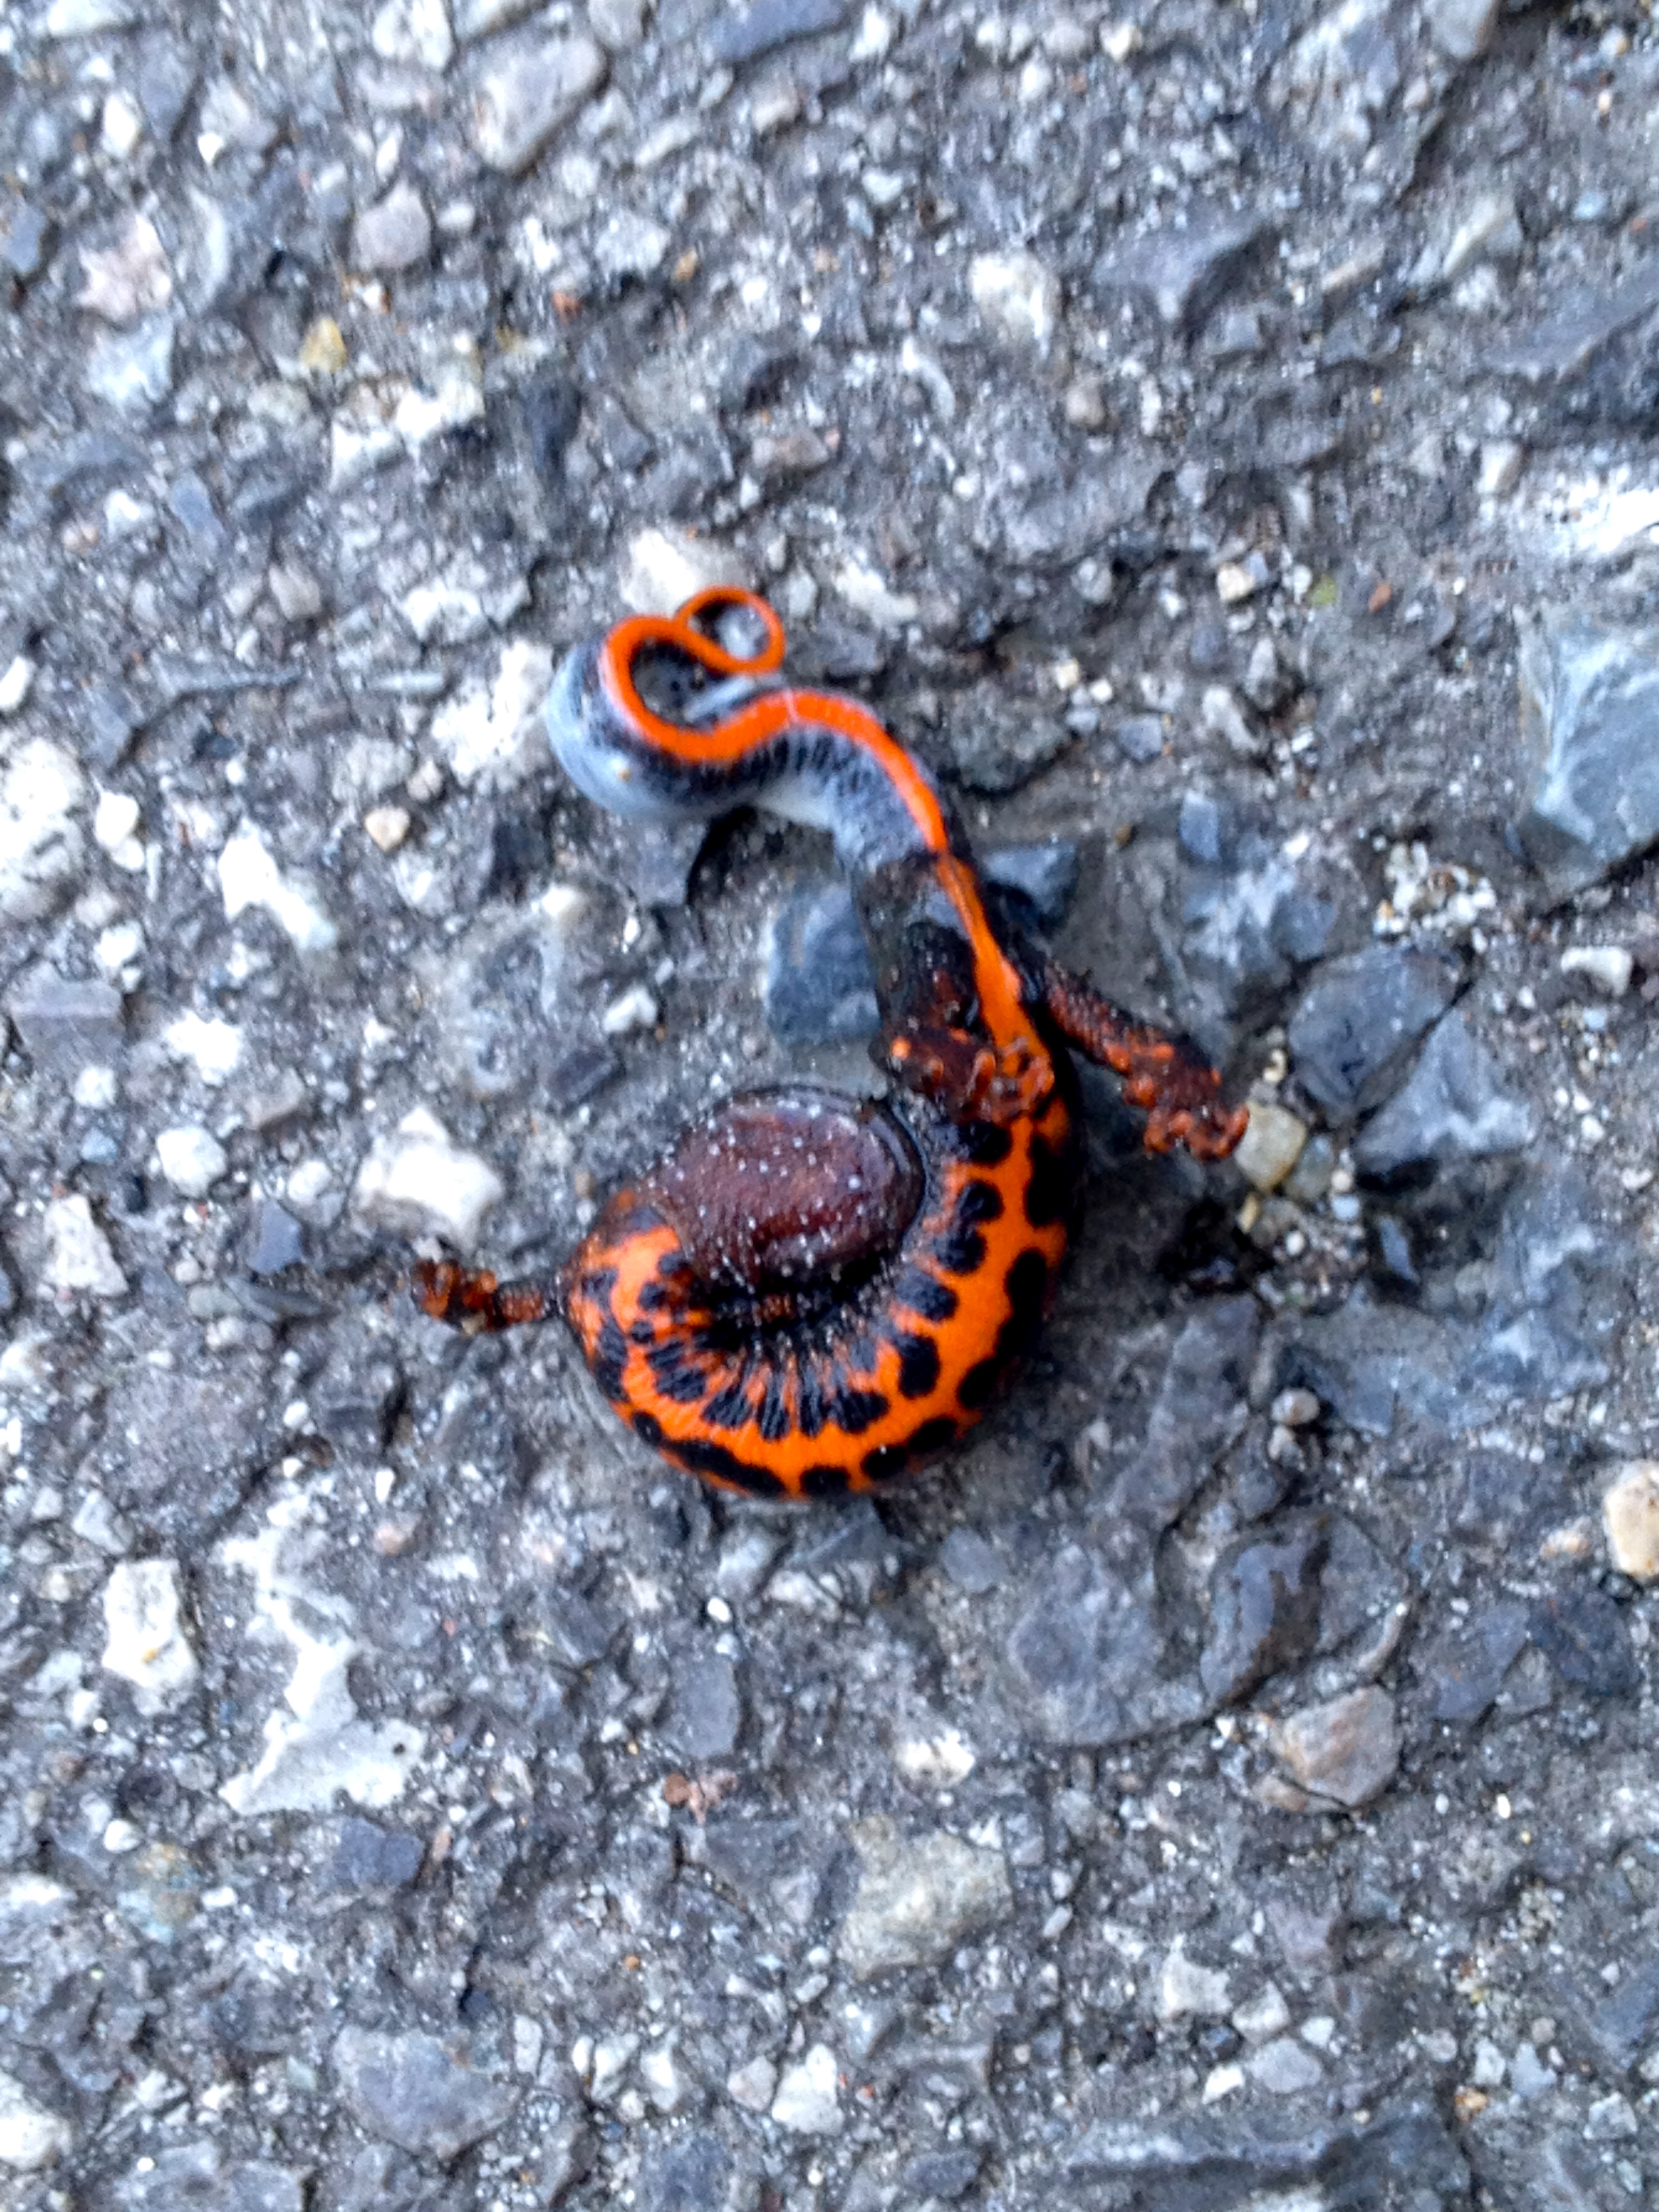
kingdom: Animalia
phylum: Chordata
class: Amphibia
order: Caudata
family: Salamandridae
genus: Triturus
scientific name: Triturus dobrogicus
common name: Danube crested newt
